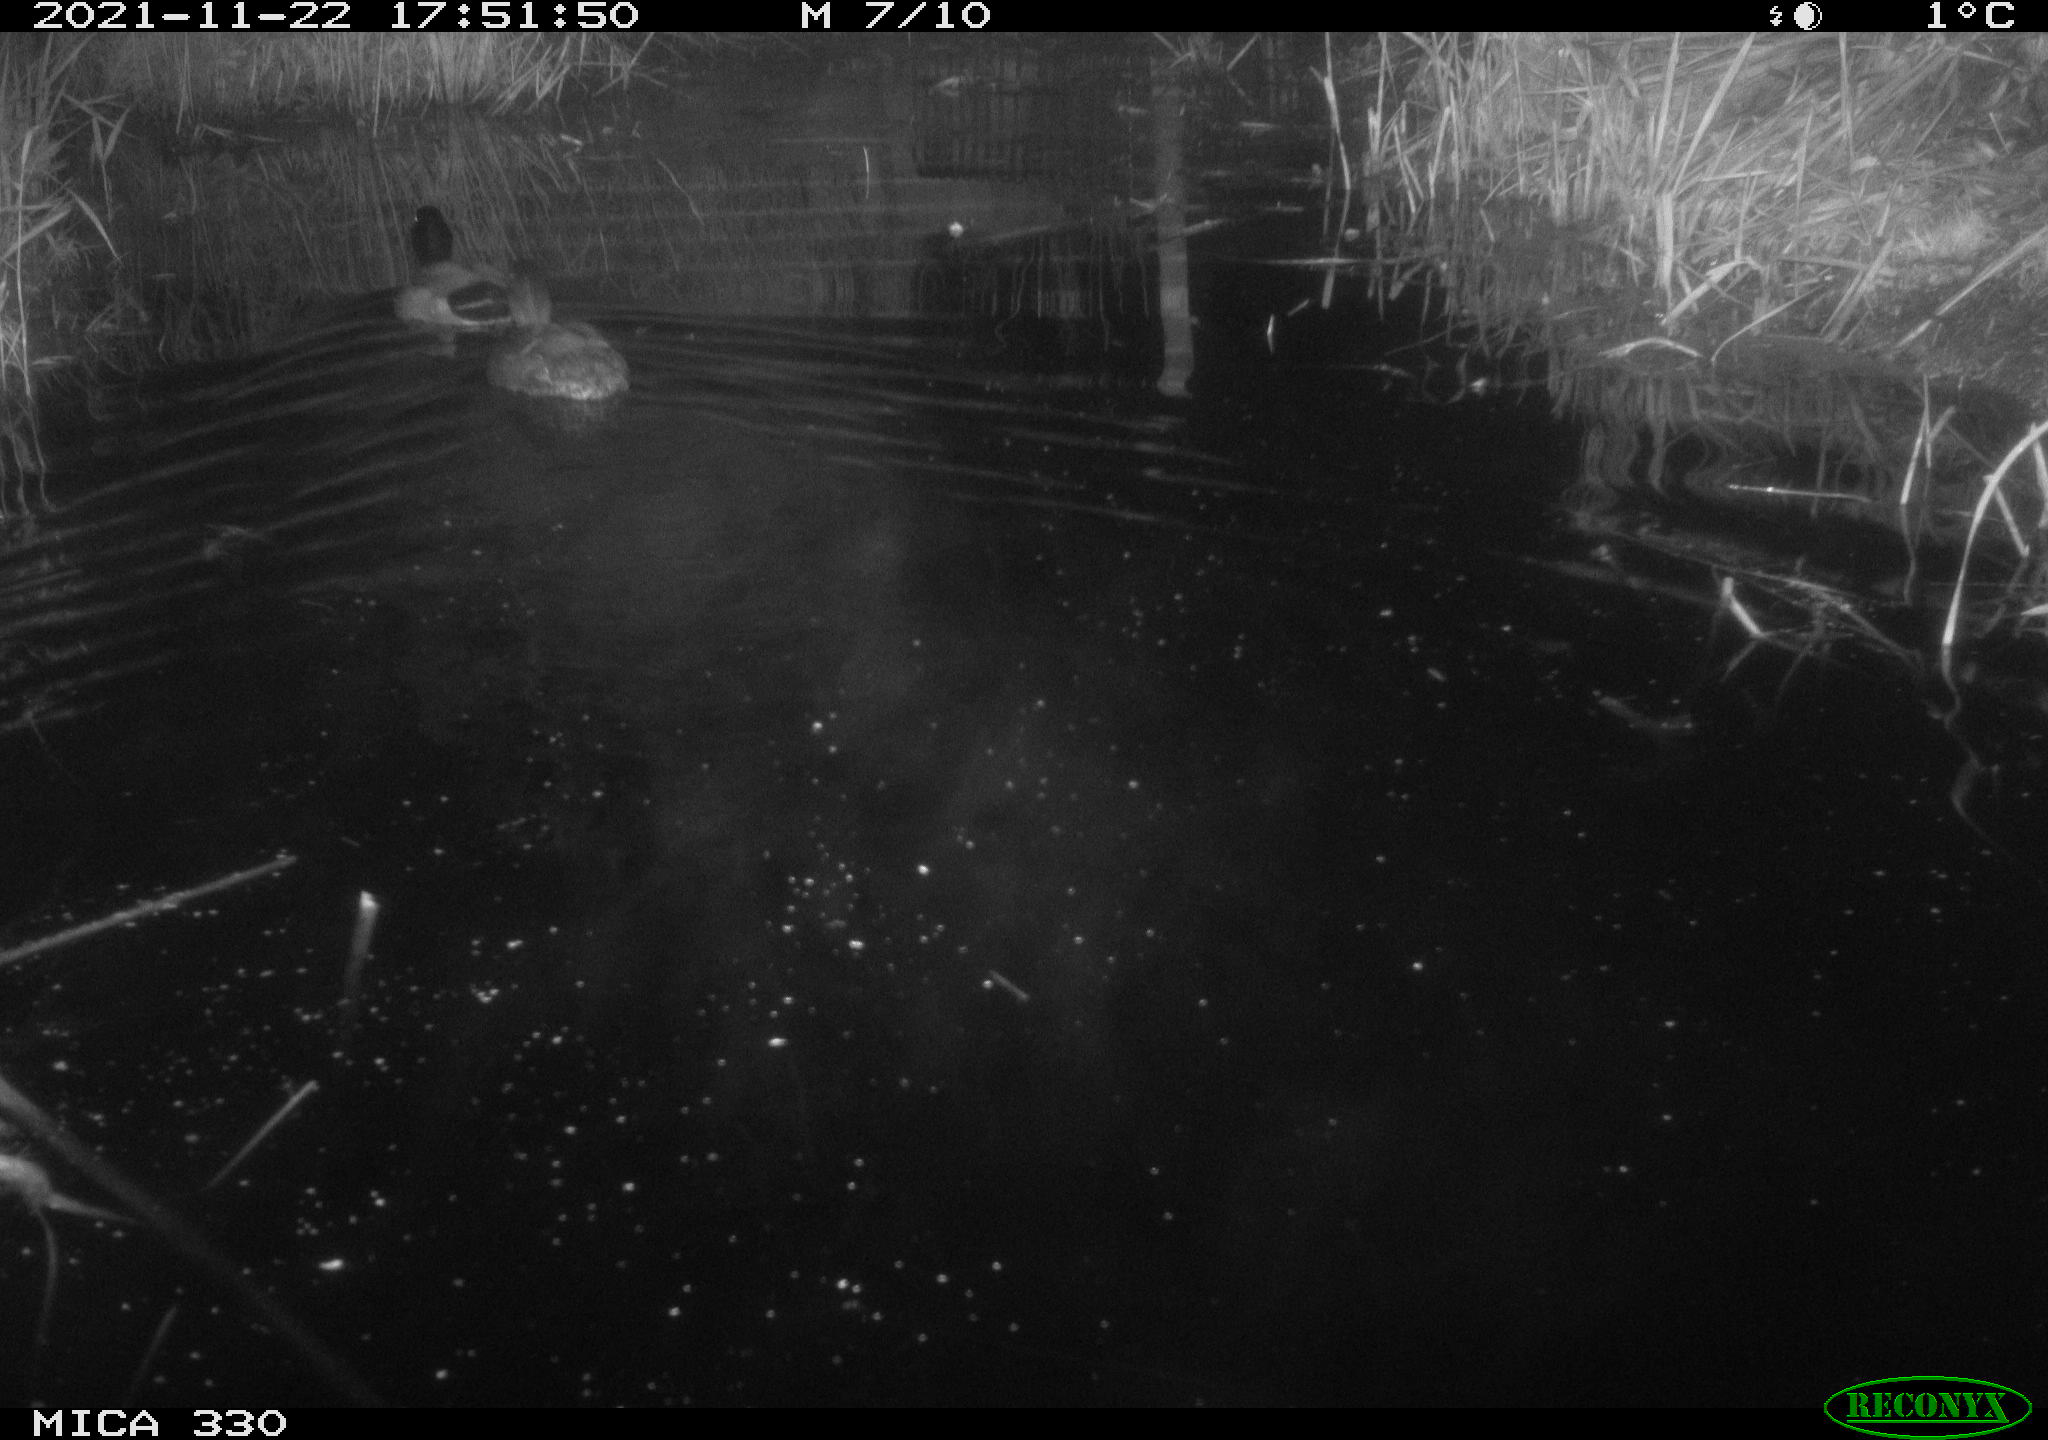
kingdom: Animalia
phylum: Chordata
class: Aves
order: Anseriformes
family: Anatidae
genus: Anas
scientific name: Anas platyrhynchos
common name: Mallard
